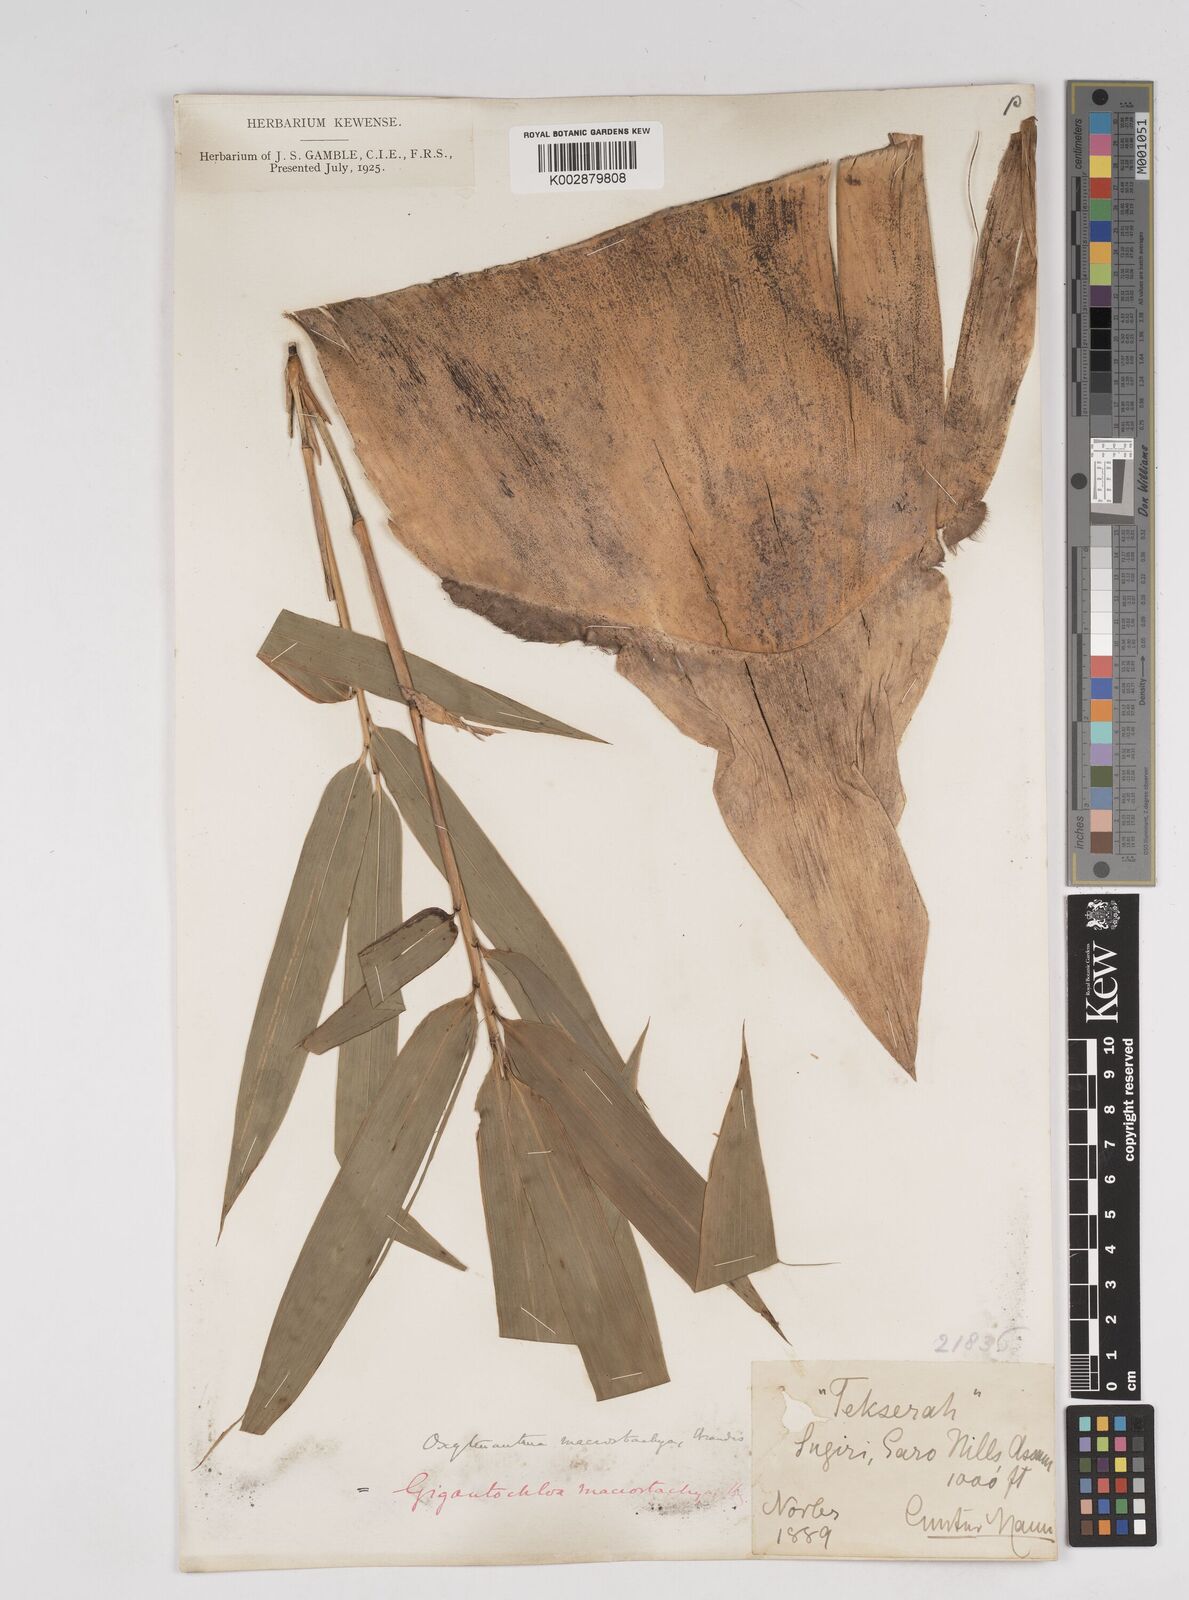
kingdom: Plantae
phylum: Tracheophyta
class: Liliopsida
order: Poales
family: Poaceae
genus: Gigantochloa
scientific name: Gigantochloa macrostachya
